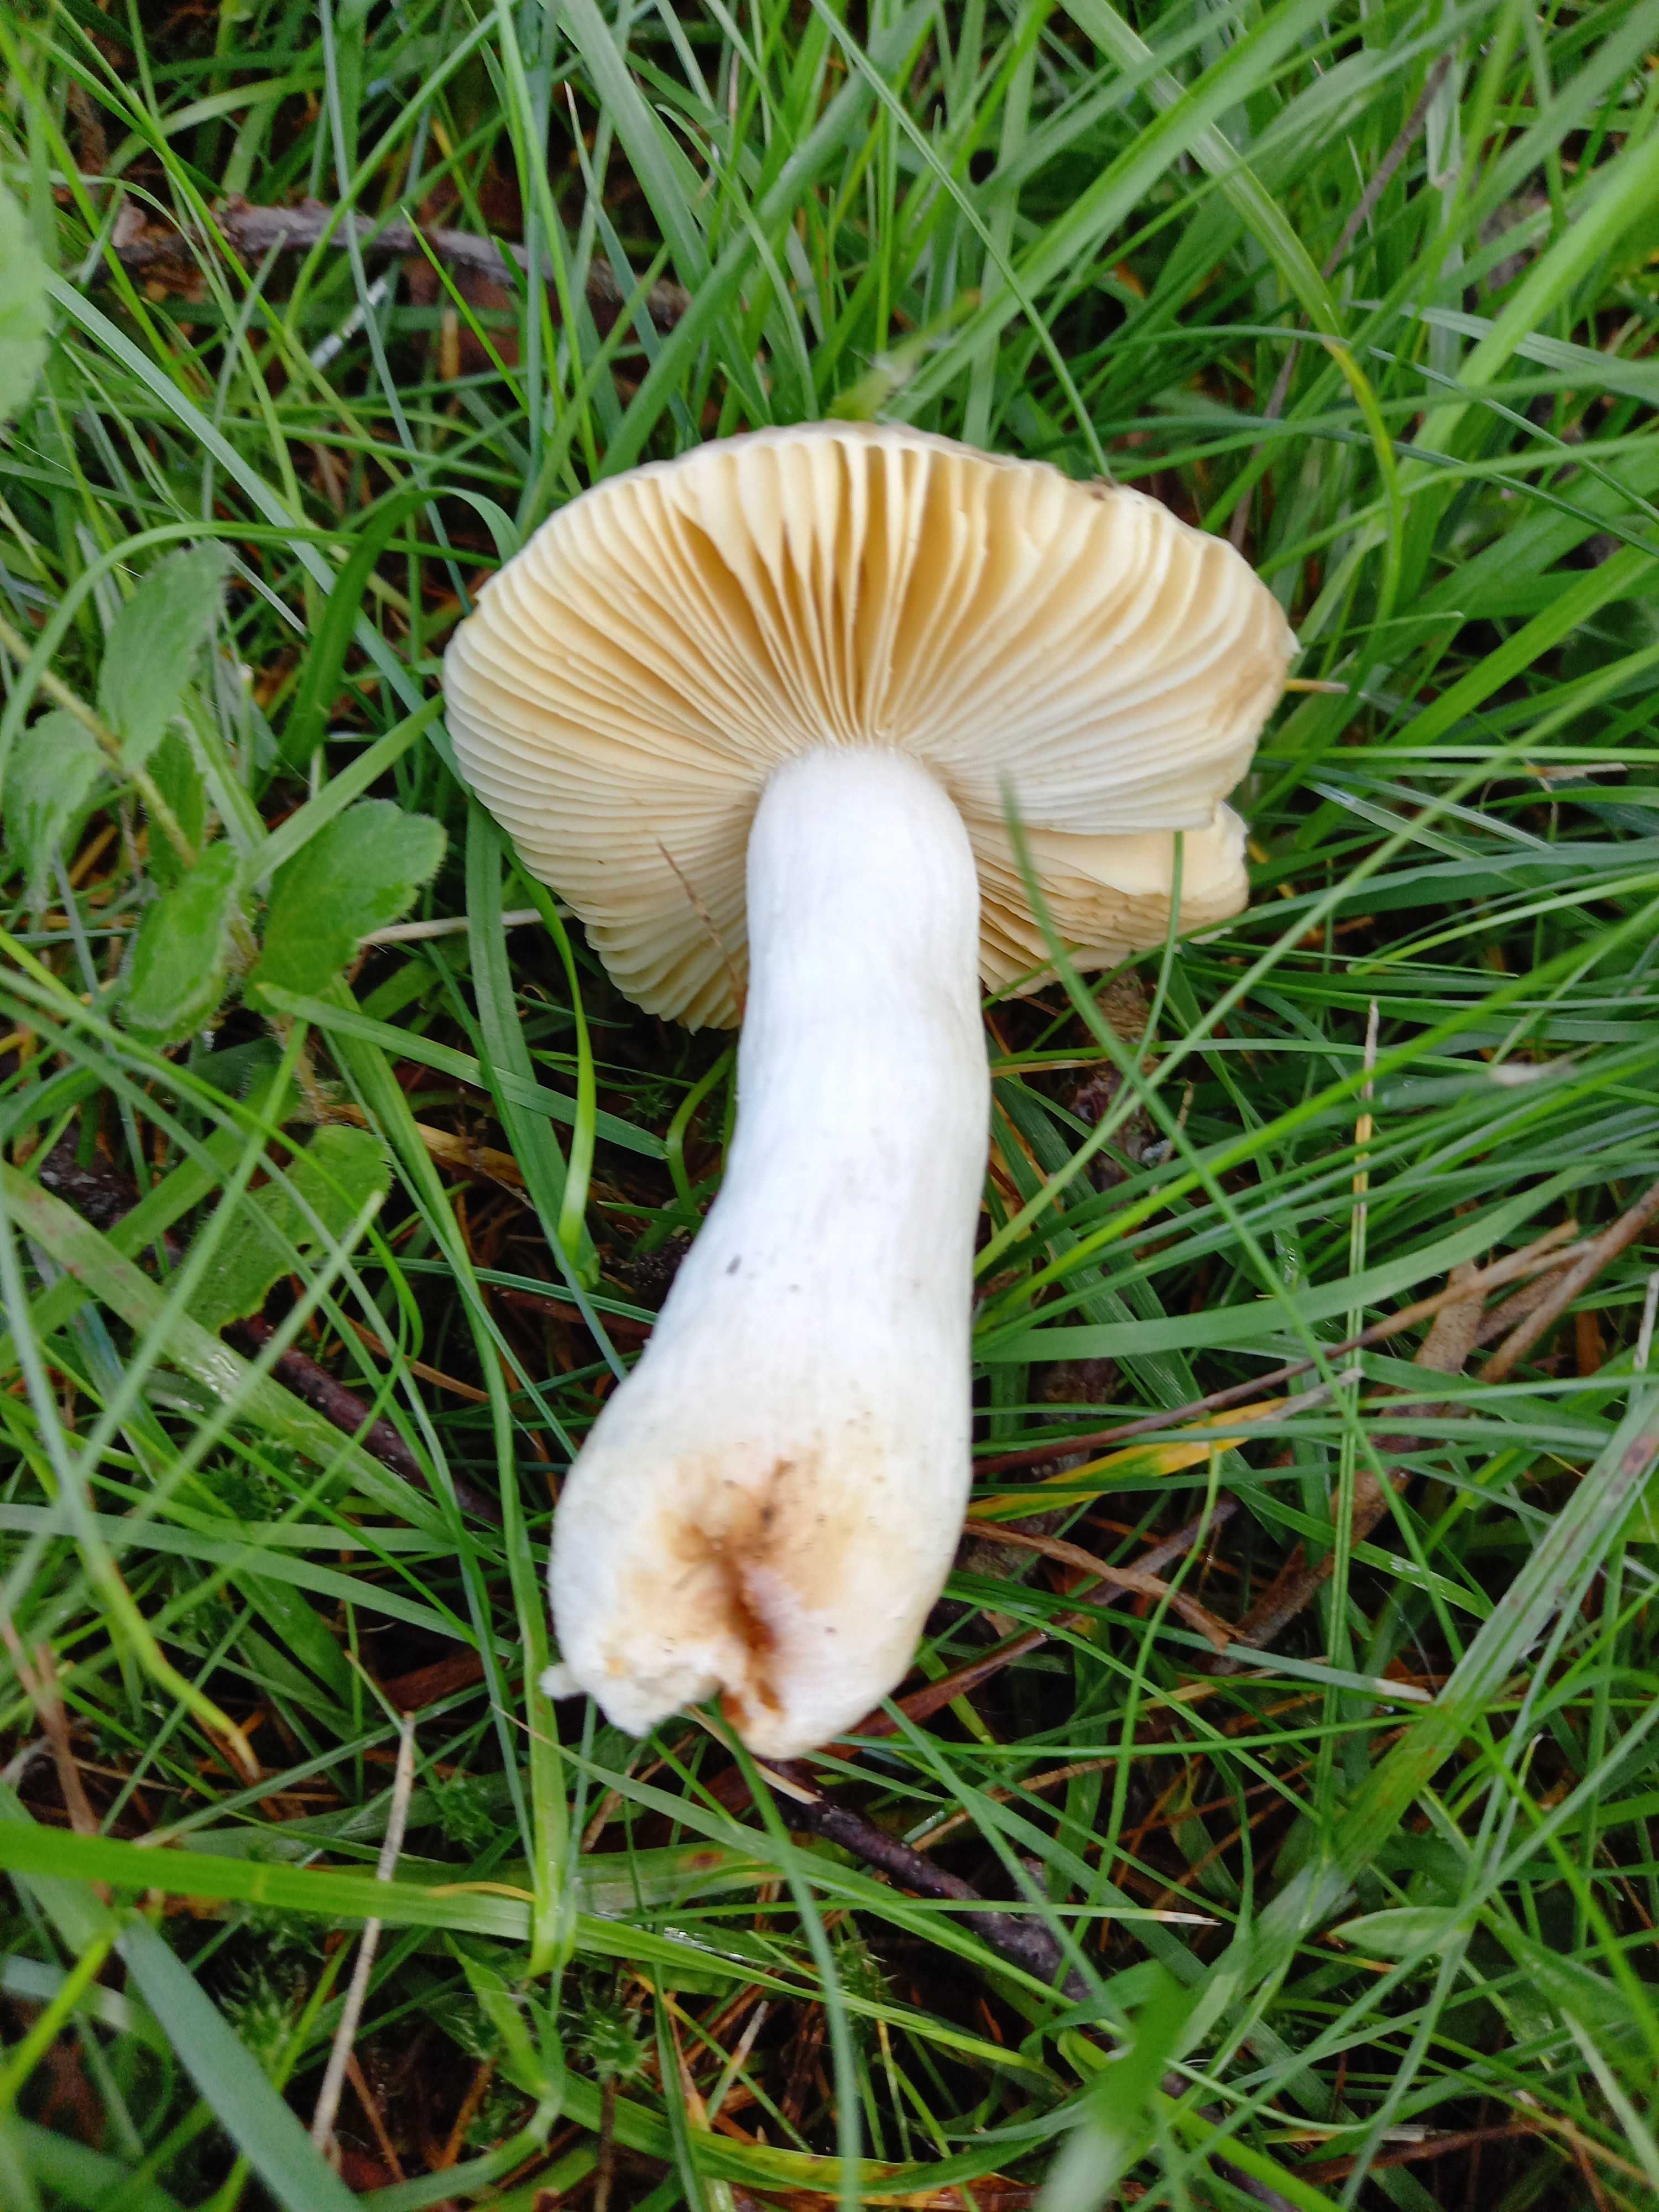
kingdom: Fungi
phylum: Basidiomycota
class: Agaricomycetes
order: Russulales
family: Russulaceae
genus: Russula
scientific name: Russula odorata
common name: duft-skørhat
